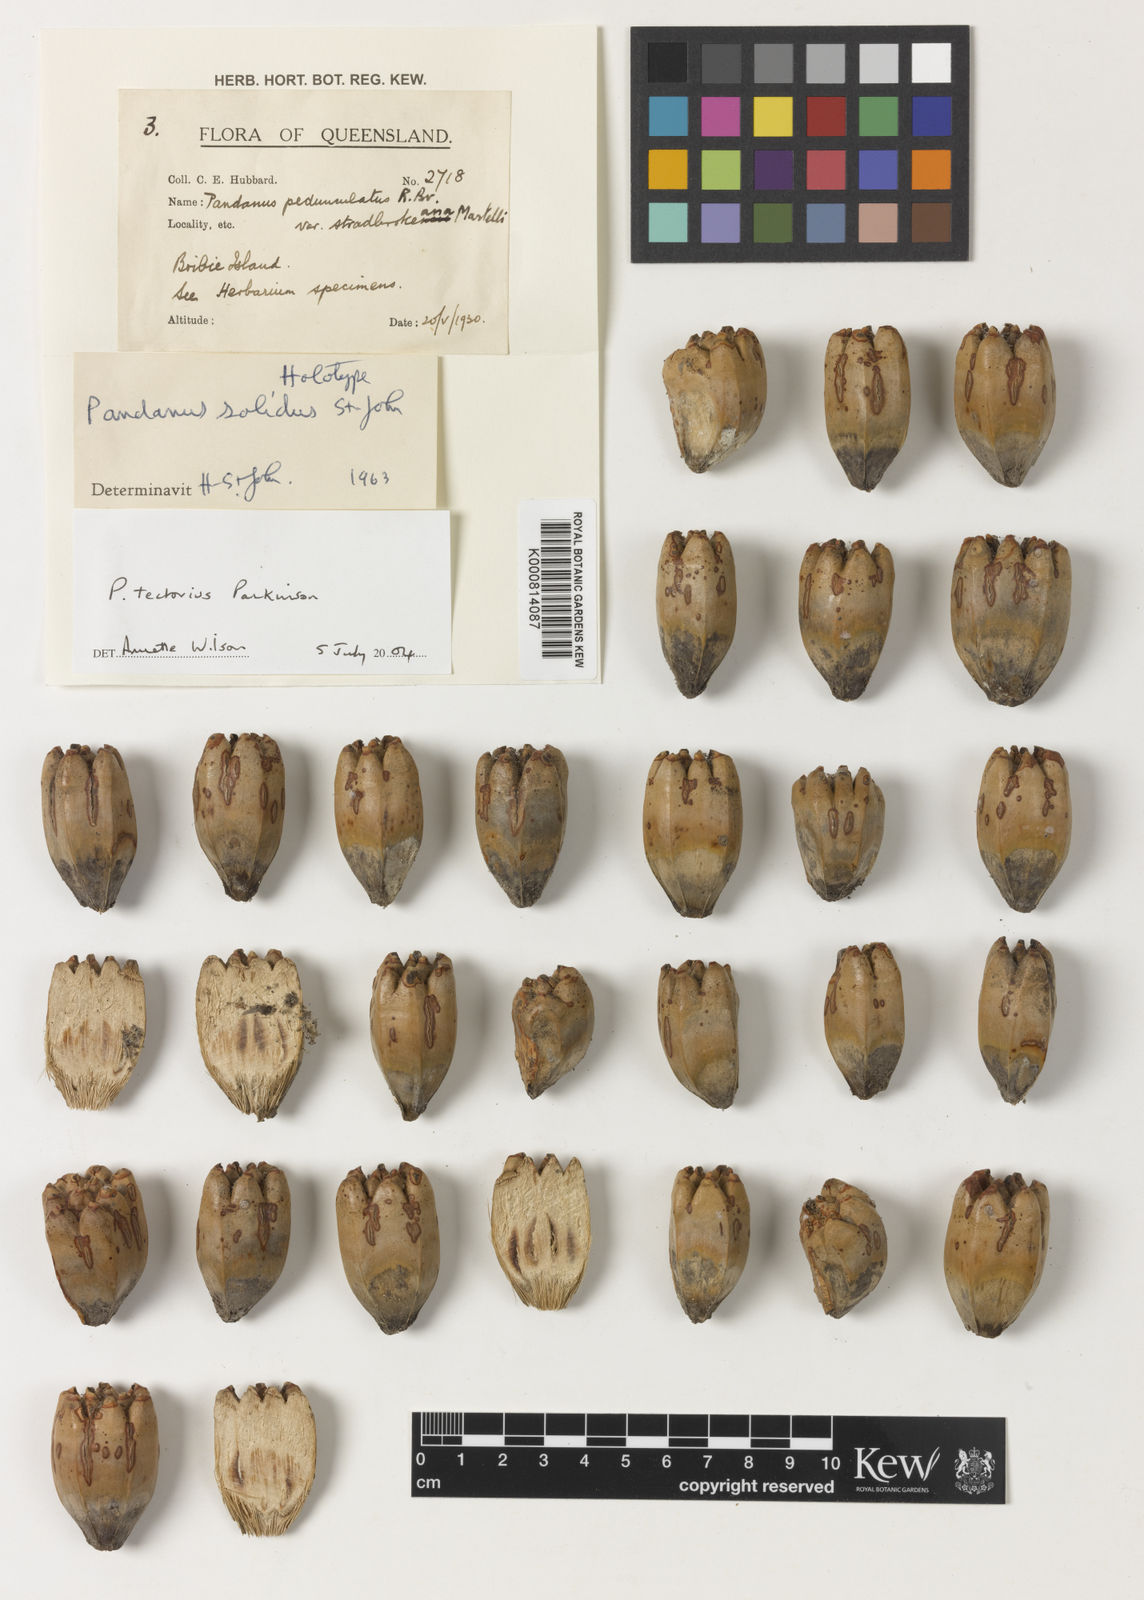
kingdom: Plantae
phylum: Tracheophyta
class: Liliopsida
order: Pandanales
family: Pandanaceae
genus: Pandanus
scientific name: Pandanus
